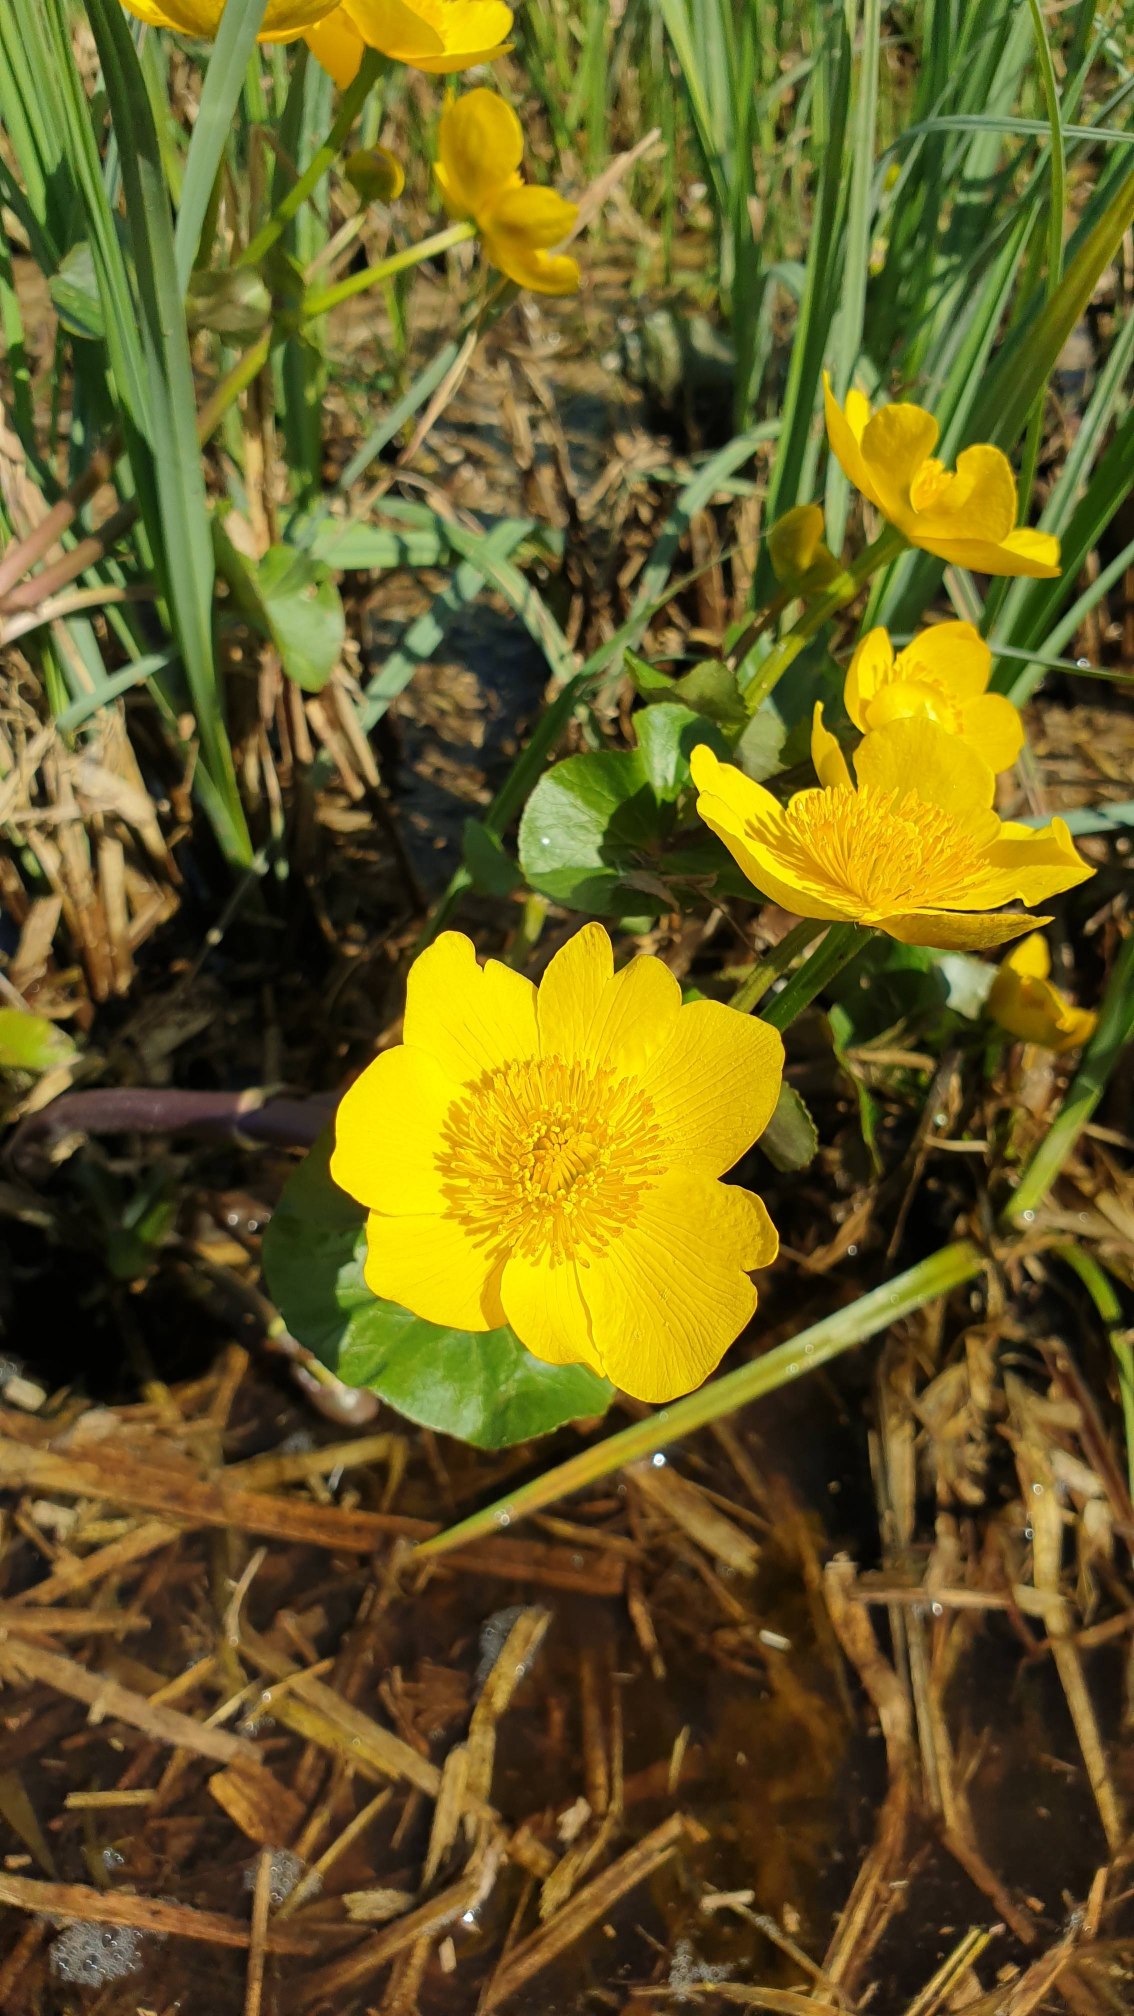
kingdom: Plantae
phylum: Tracheophyta
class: Magnoliopsida
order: Ranunculales
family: Ranunculaceae
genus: Caltha
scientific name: Caltha palustris
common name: Eng-kabbeleje
